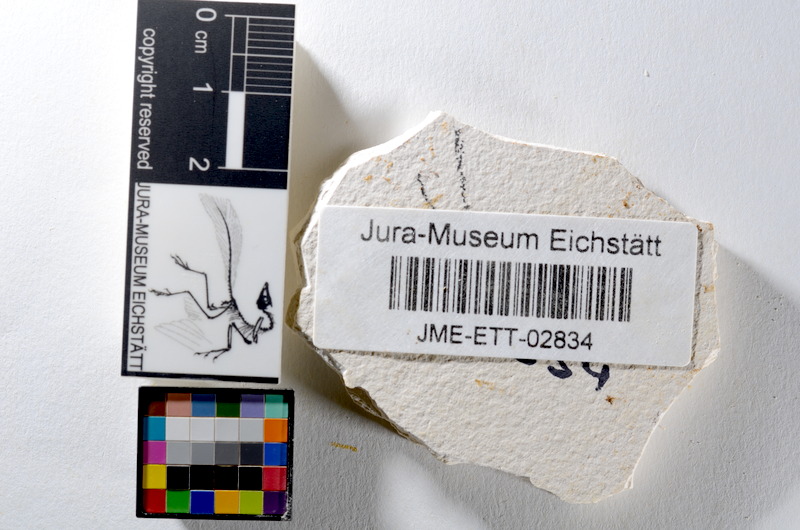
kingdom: Animalia
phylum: Chordata
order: Salmoniformes
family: Orthogonikleithridae
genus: Orthogonikleithrus
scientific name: Orthogonikleithrus hoelli
